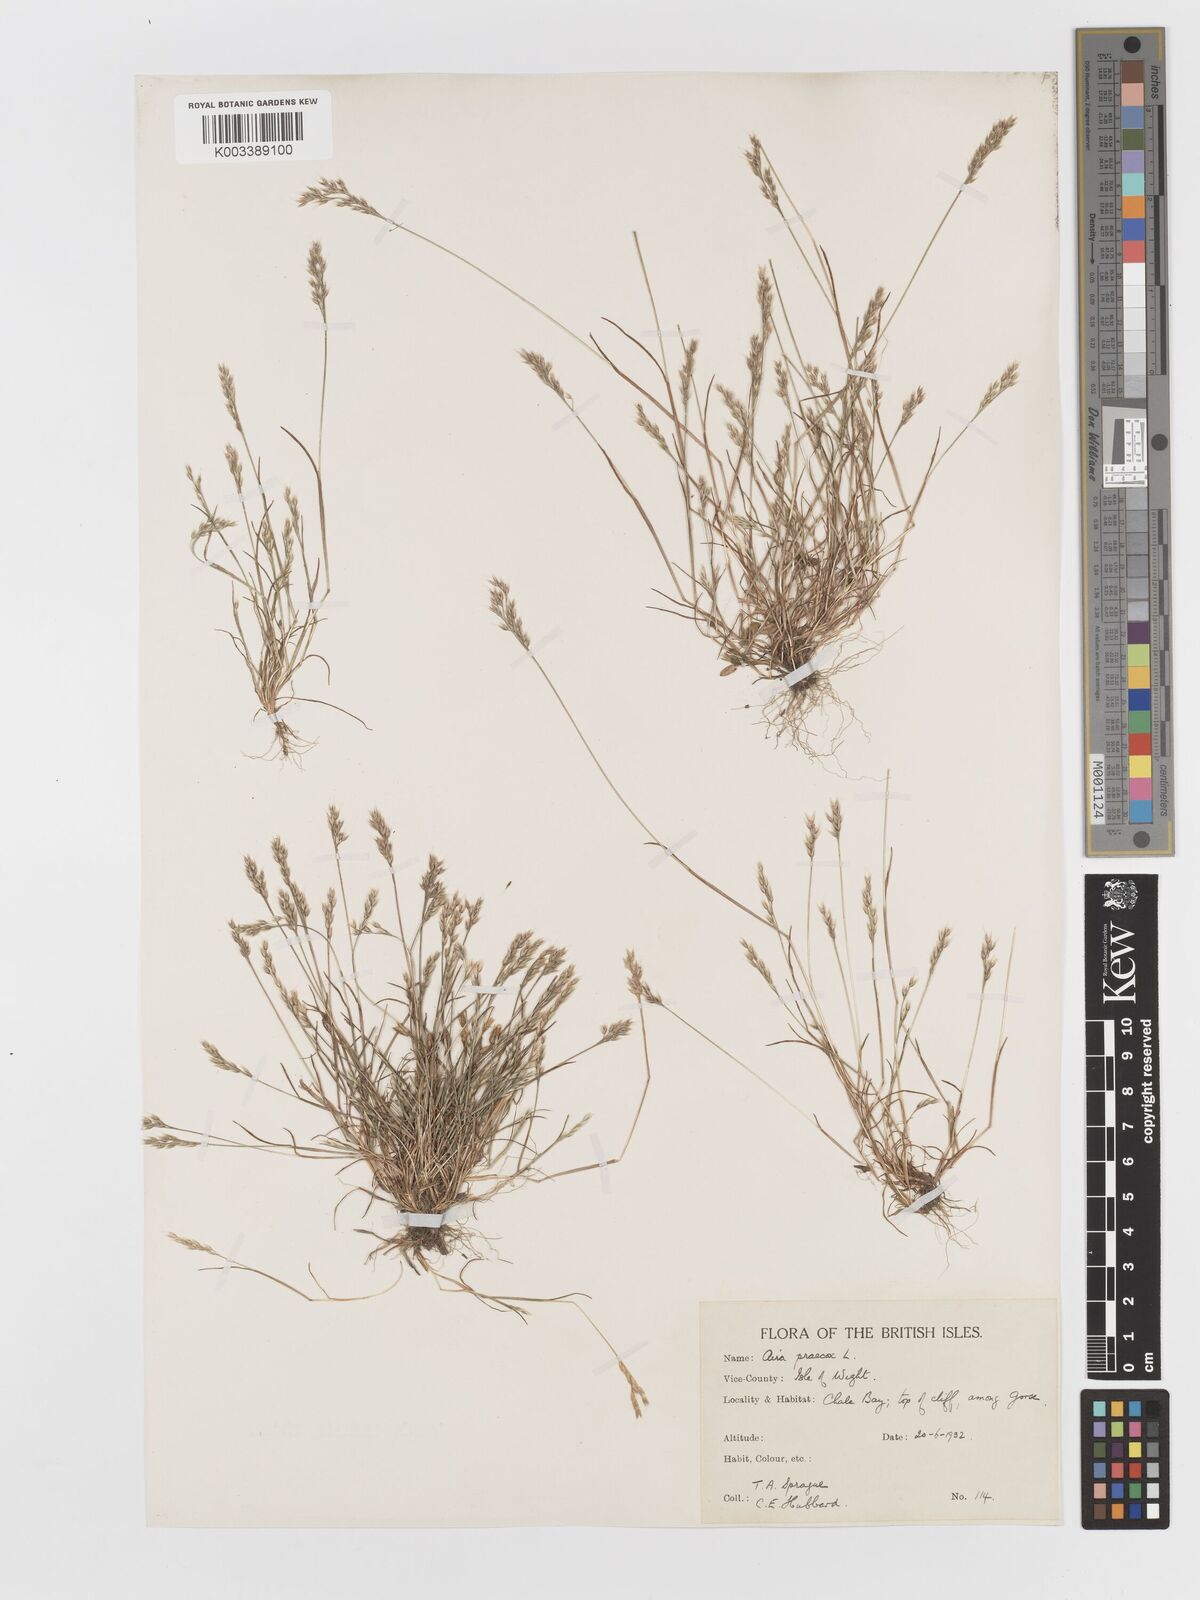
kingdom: Plantae
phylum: Tracheophyta
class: Liliopsida
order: Poales
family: Poaceae
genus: Aira
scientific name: Aira praecox
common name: Early hair-grass
